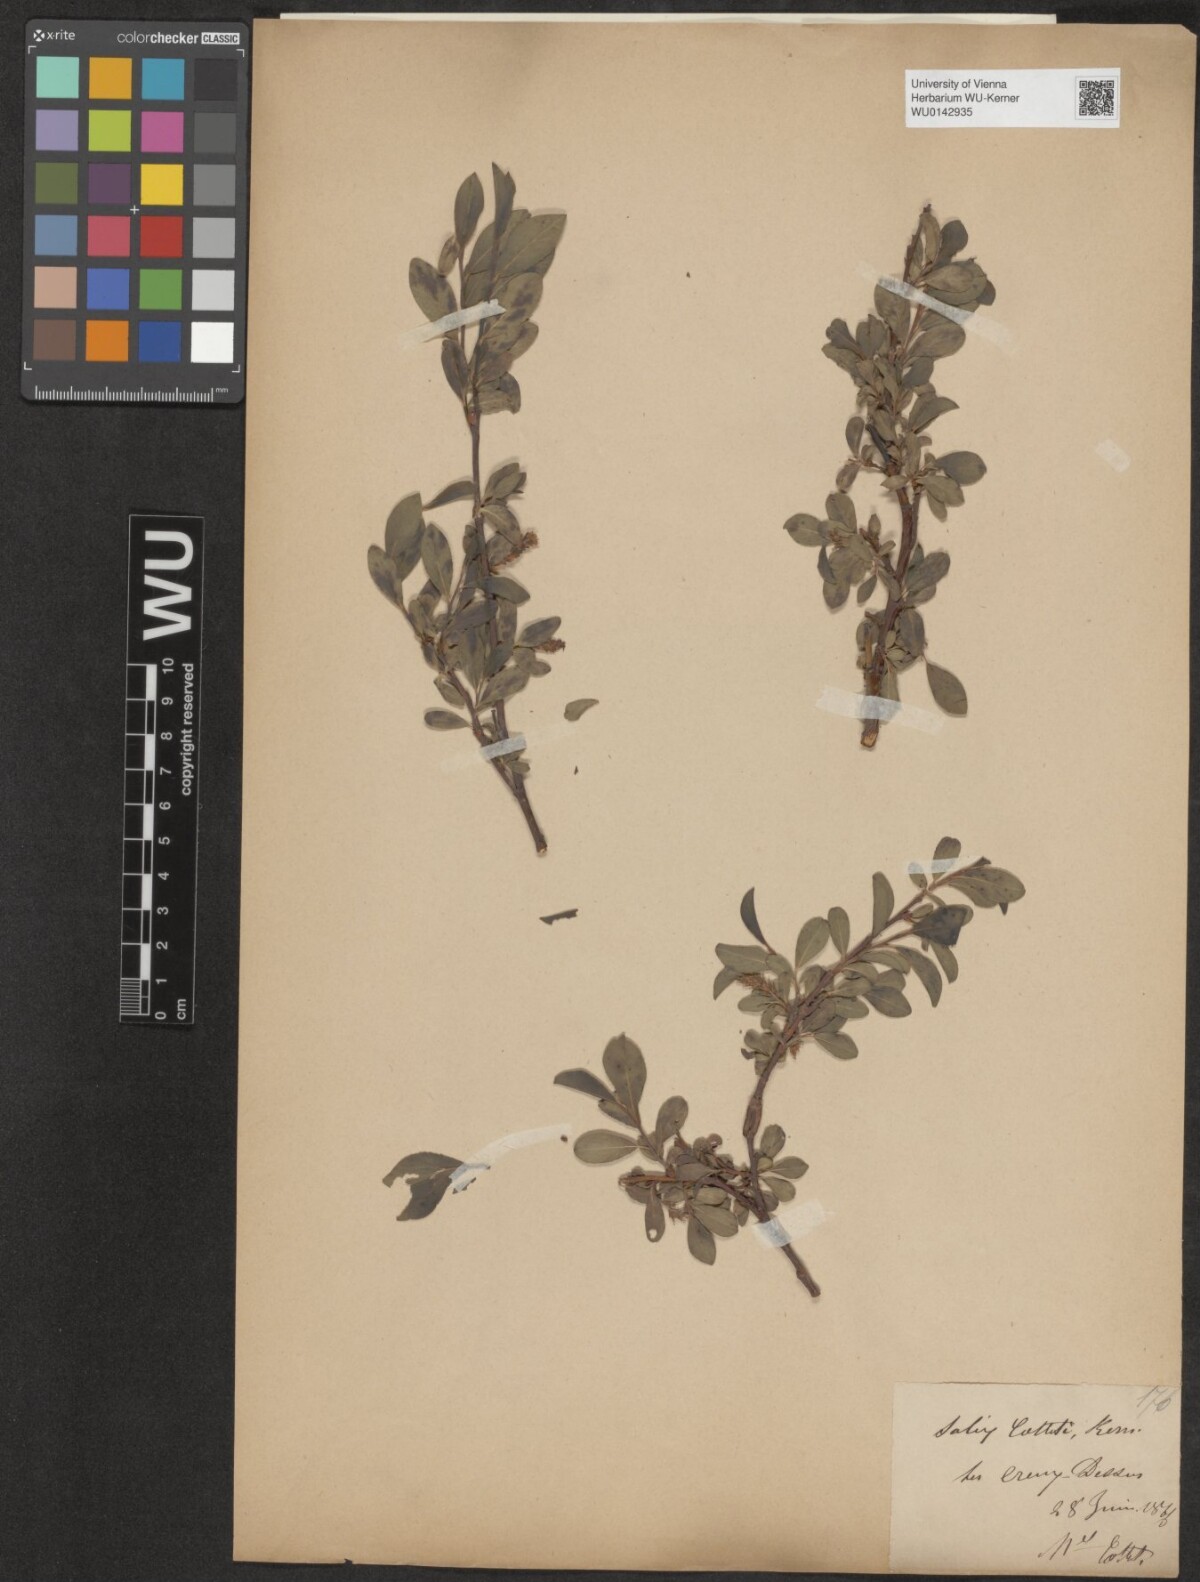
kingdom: Plantae
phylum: Tracheophyta
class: Magnoliopsida
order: Malpighiales
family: Salicaceae
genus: Salix
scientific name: Salix myrsinifolia
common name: Dark-leaved willow
